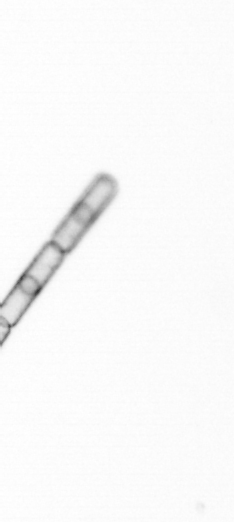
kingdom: Chromista
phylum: Ochrophyta
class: Bacillariophyceae
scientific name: Bacillariophyceae
